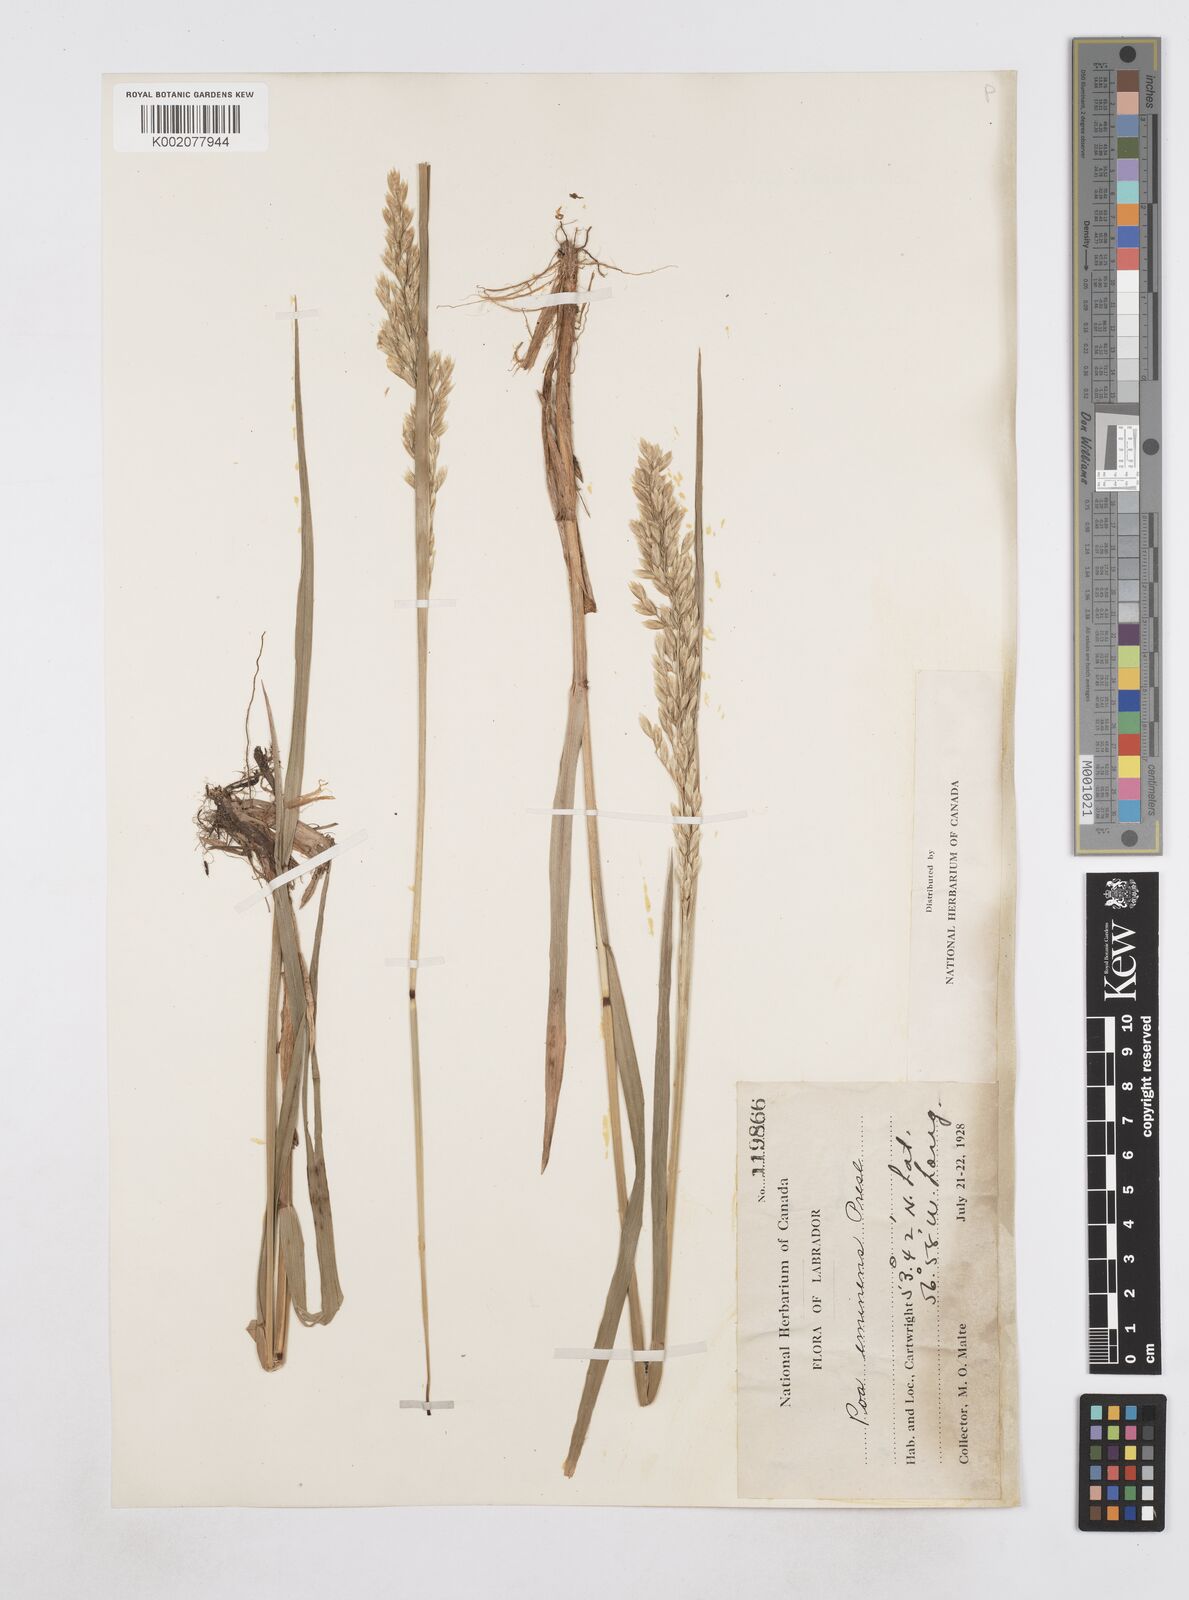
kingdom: Plantae
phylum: Tracheophyta
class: Liliopsida
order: Poales
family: Poaceae
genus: Arctopoa
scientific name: Arctopoa eminens
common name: Eminent bluegrass
